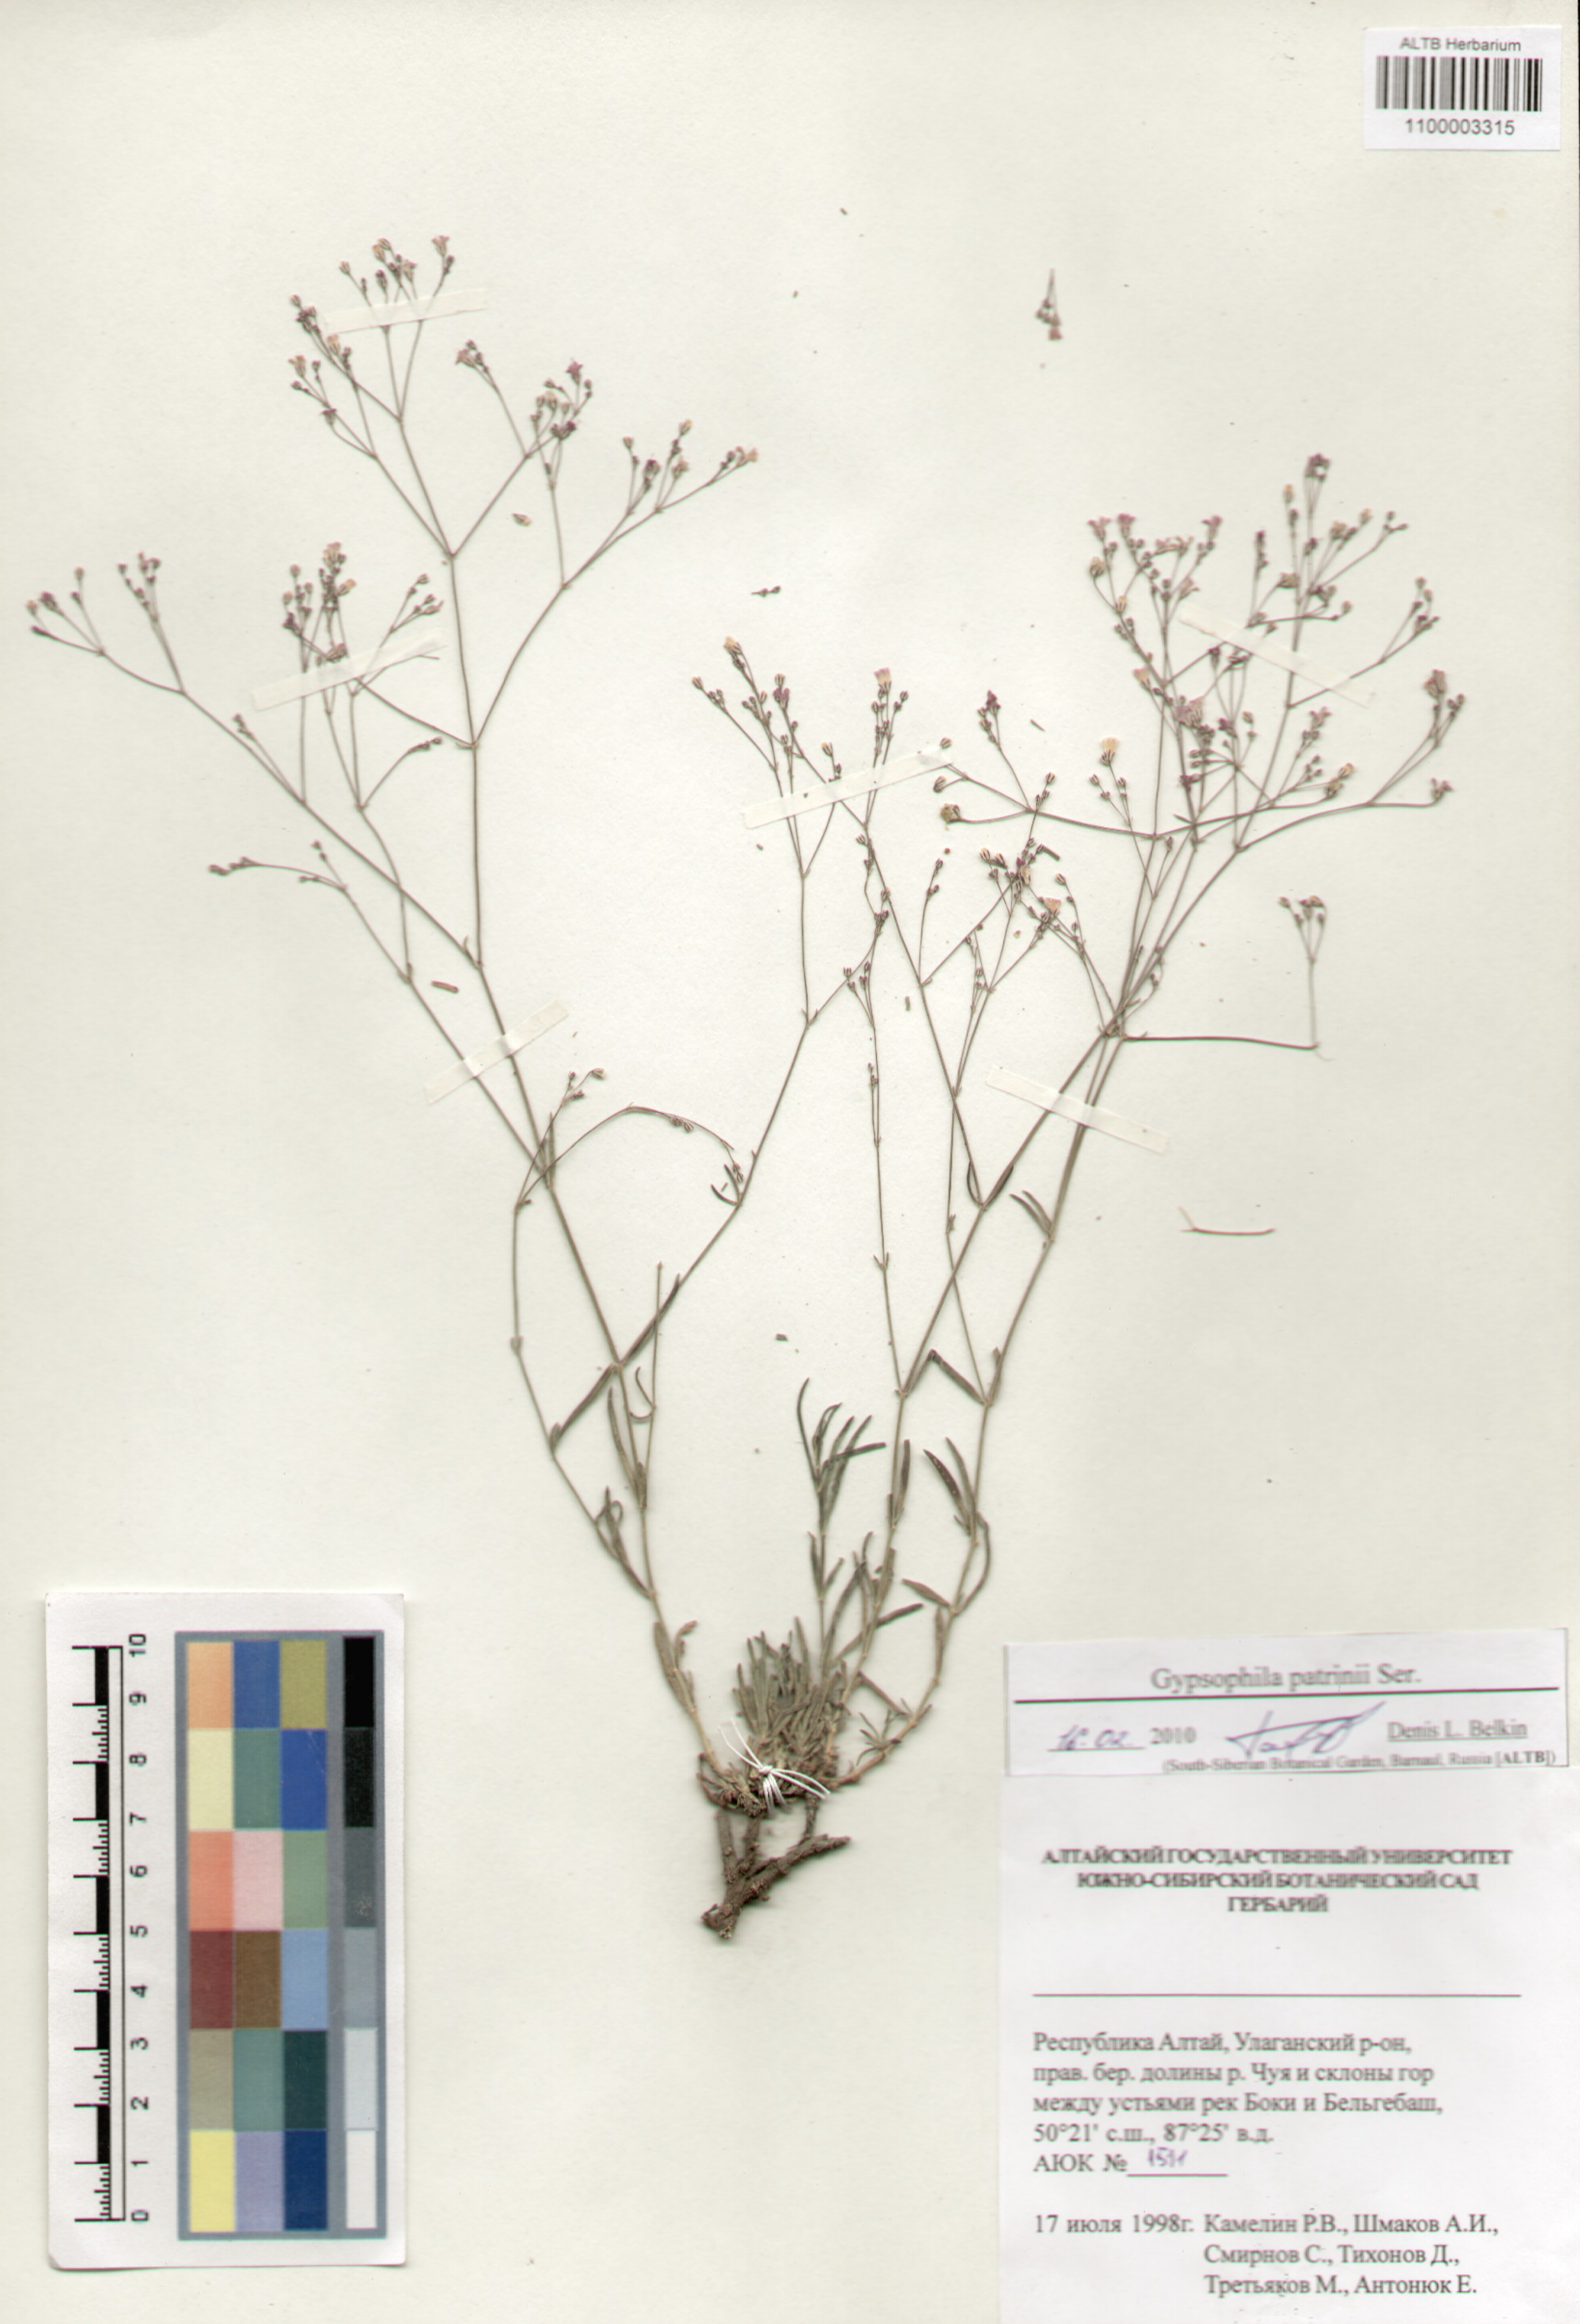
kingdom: Plantae
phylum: Tracheophyta
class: Magnoliopsida
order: Caryophyllales
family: Caryophyllaceae
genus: Gypsophila
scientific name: Gypsophila patrinii
